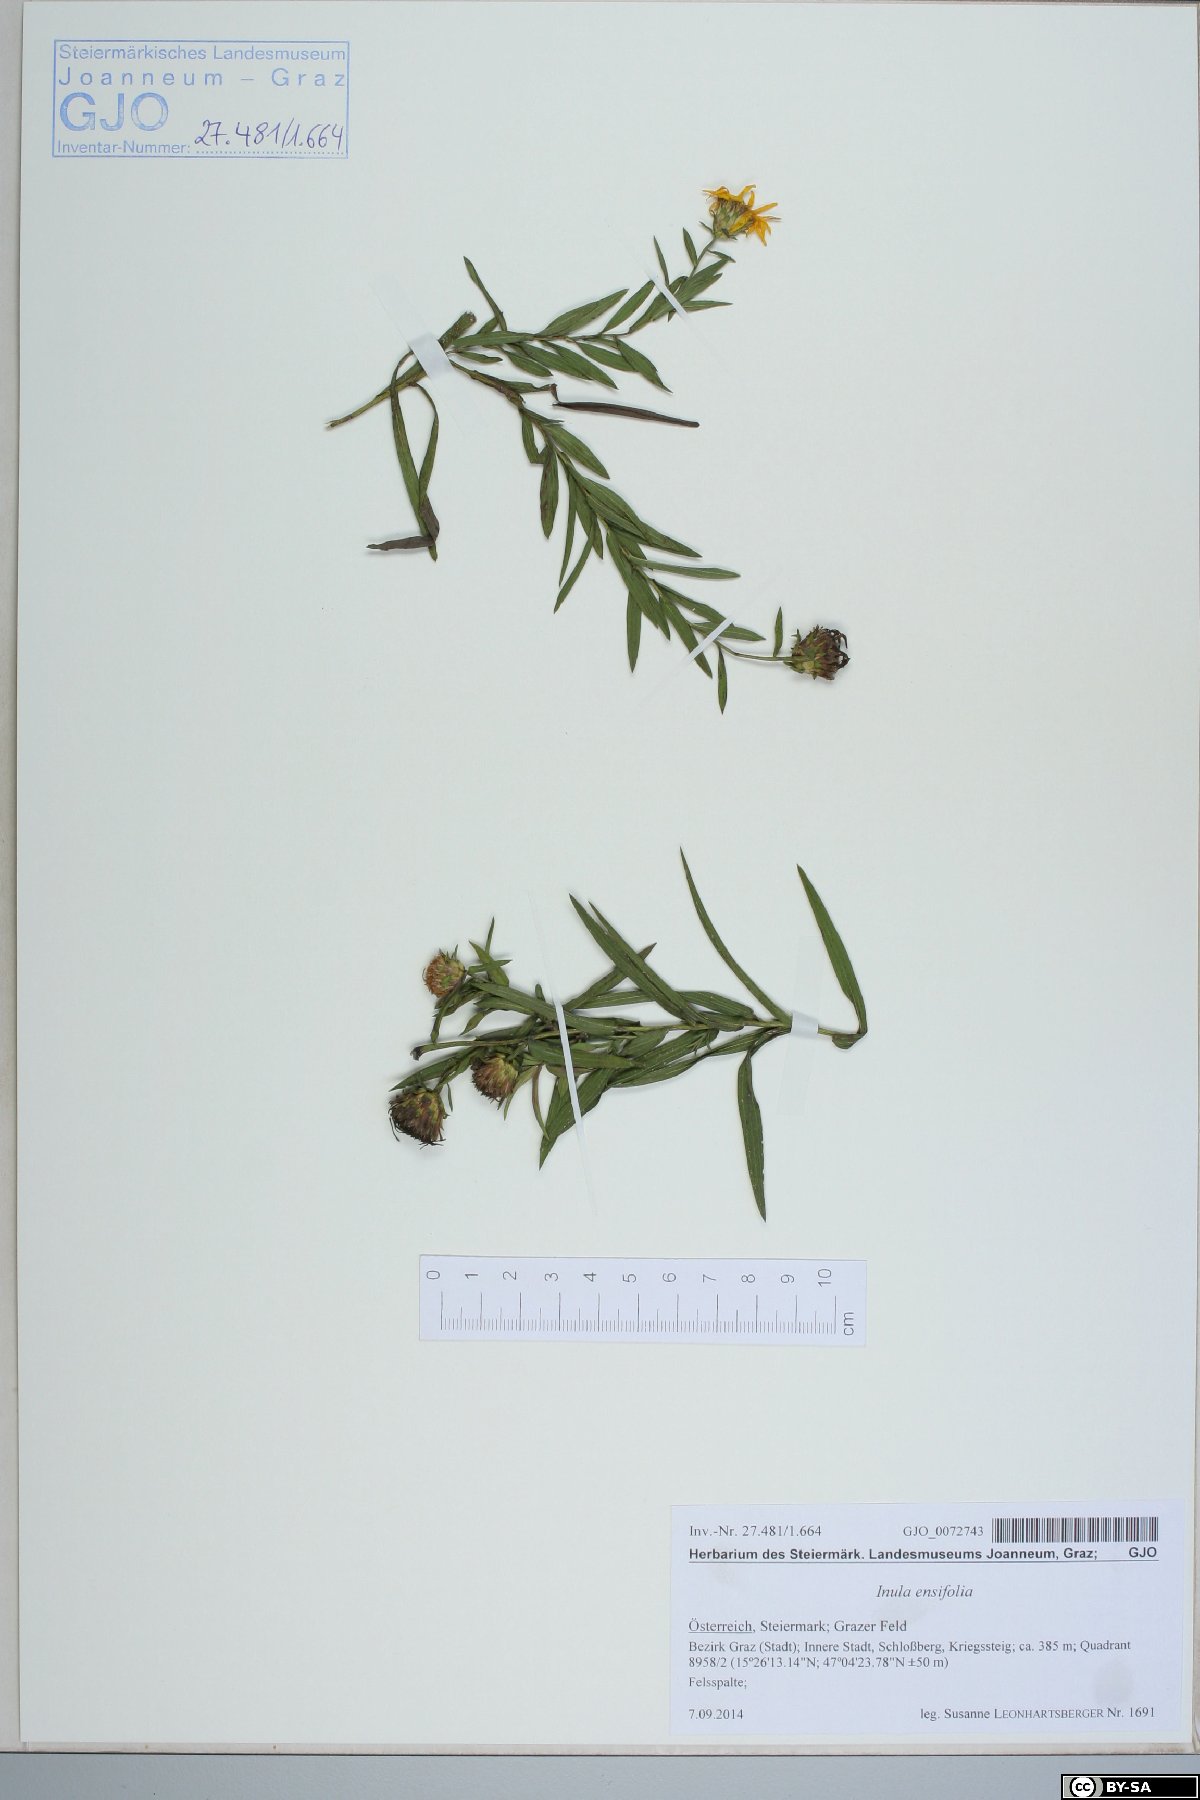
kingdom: Plantae
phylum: Tracheophyta
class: Magnoliopsida
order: Asterales
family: Asteraceae
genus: Pentanema
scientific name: Pentanema ensifolium
